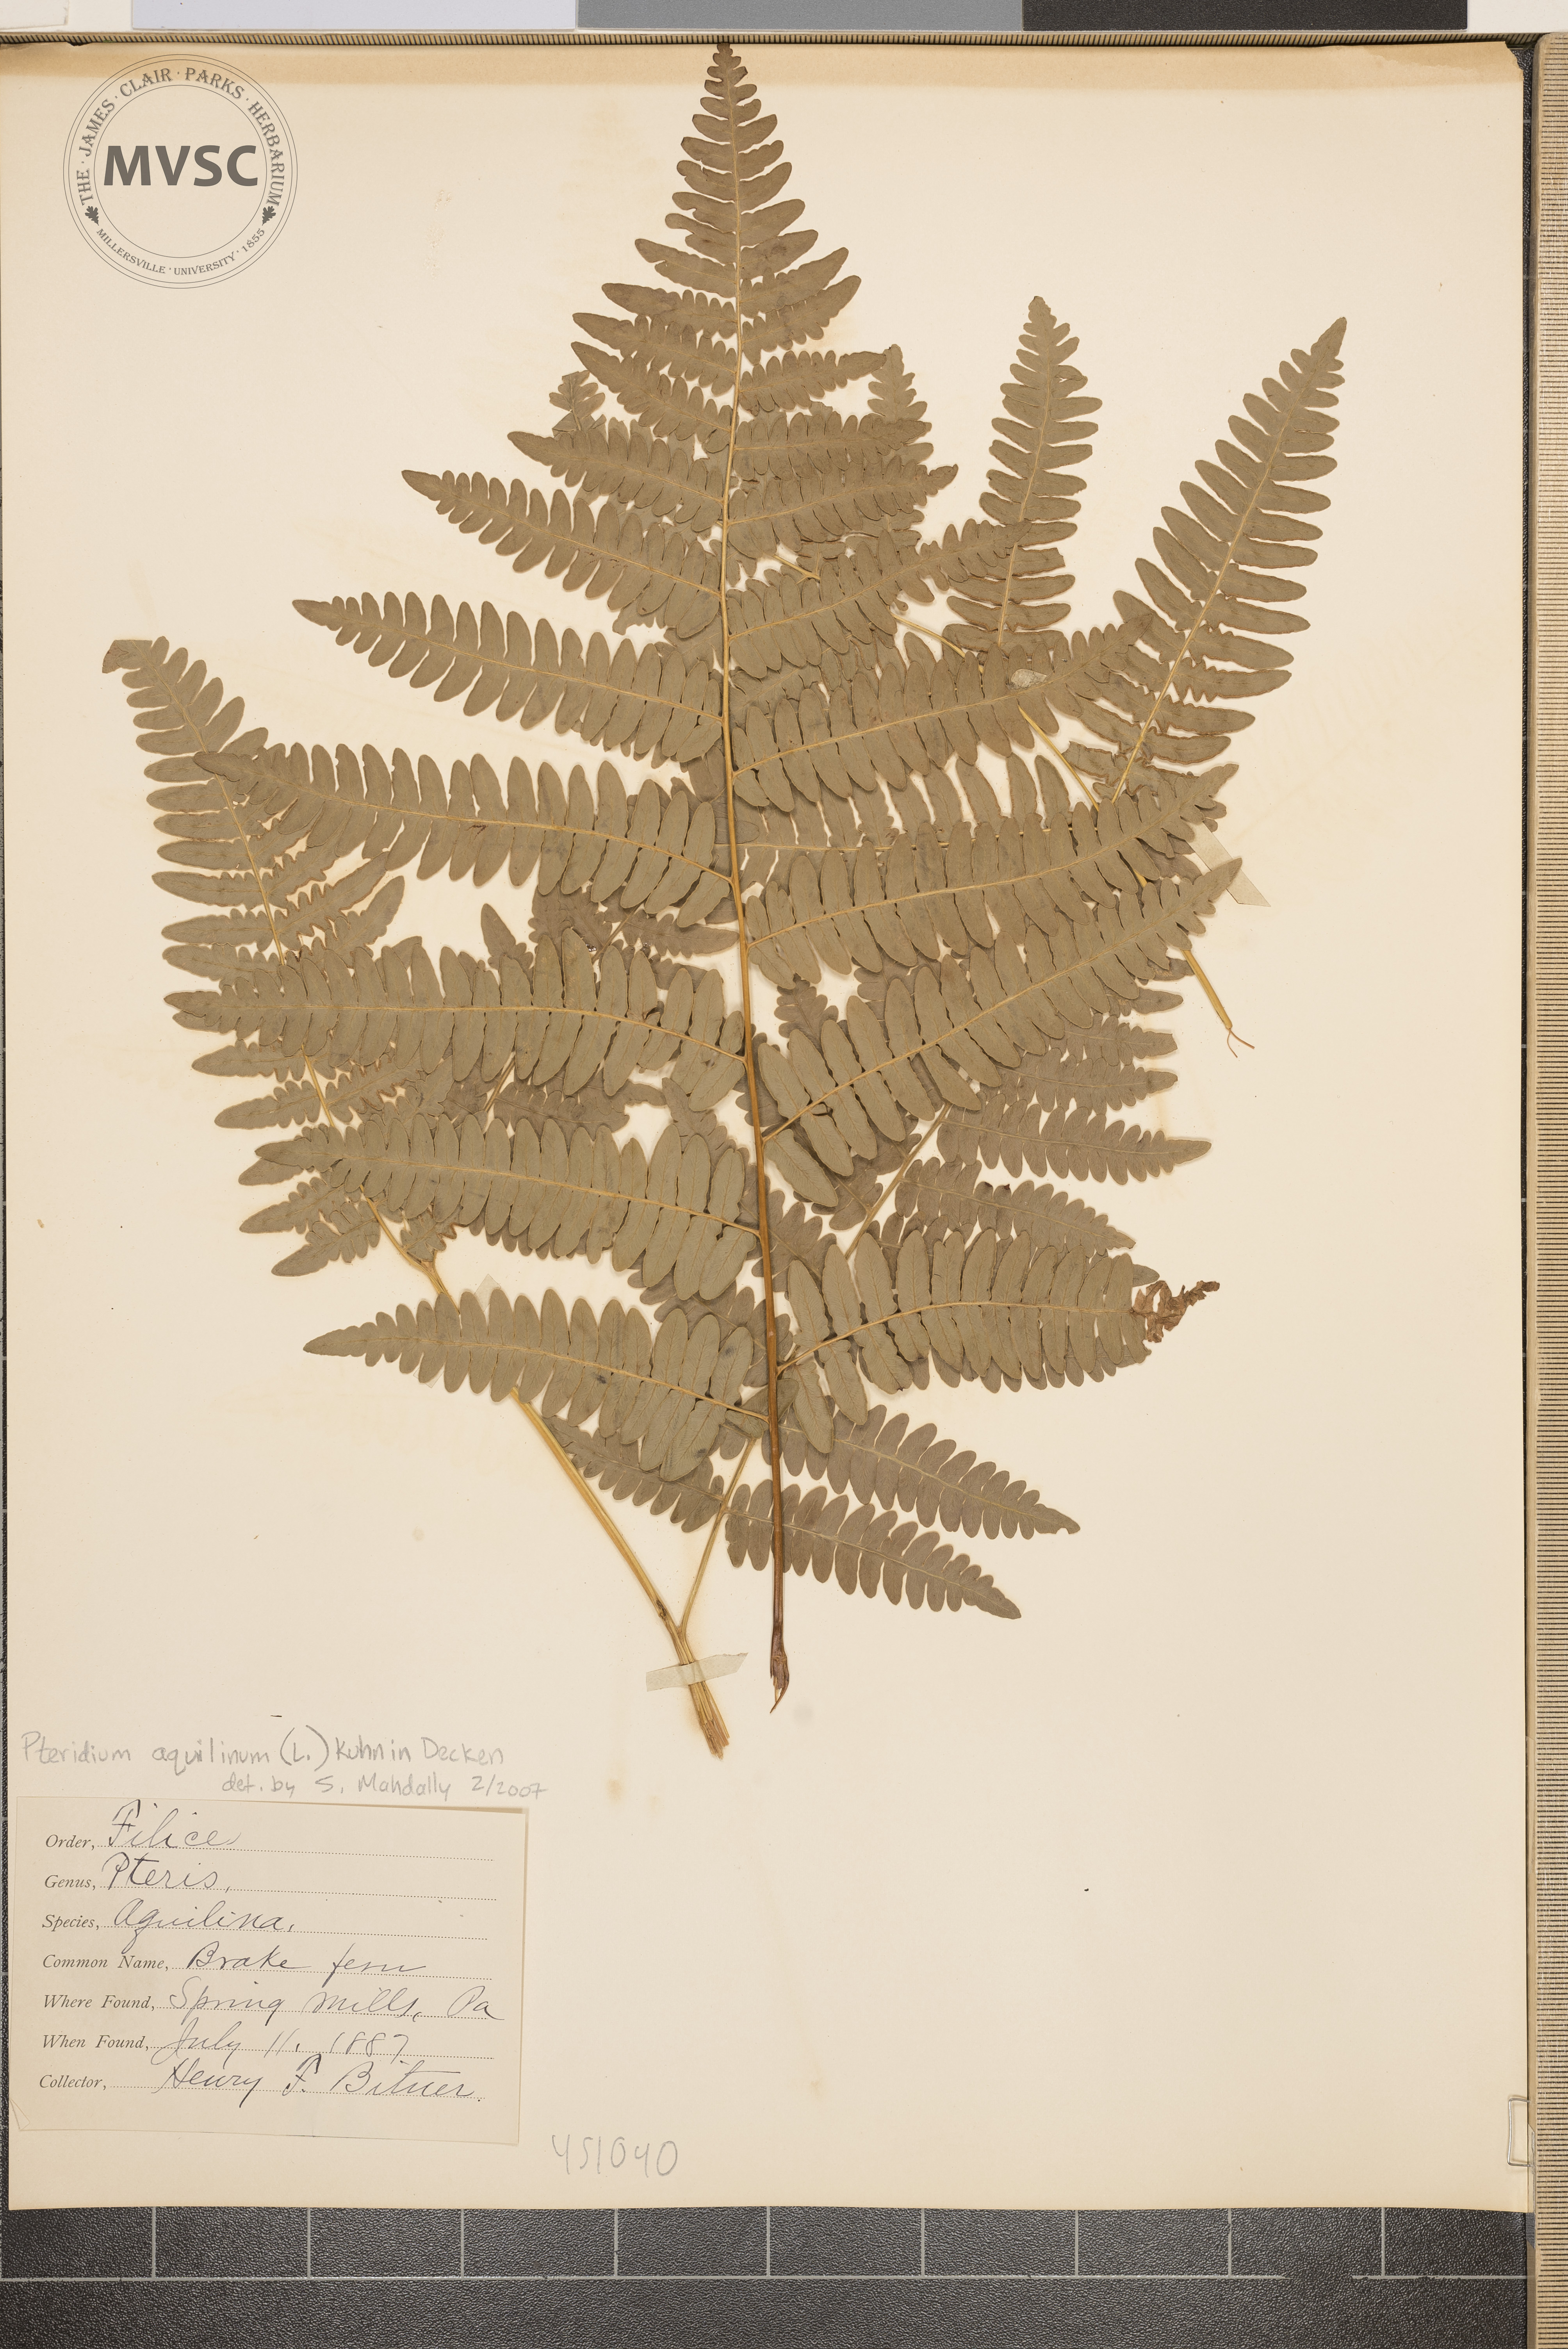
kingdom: Plantae
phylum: Tracheophyta
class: Polypodiopsida
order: Polypodiales
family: Dennstaedtiaceae
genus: Pteridium
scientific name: Pteridium aquilinum
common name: Bracken Fern
